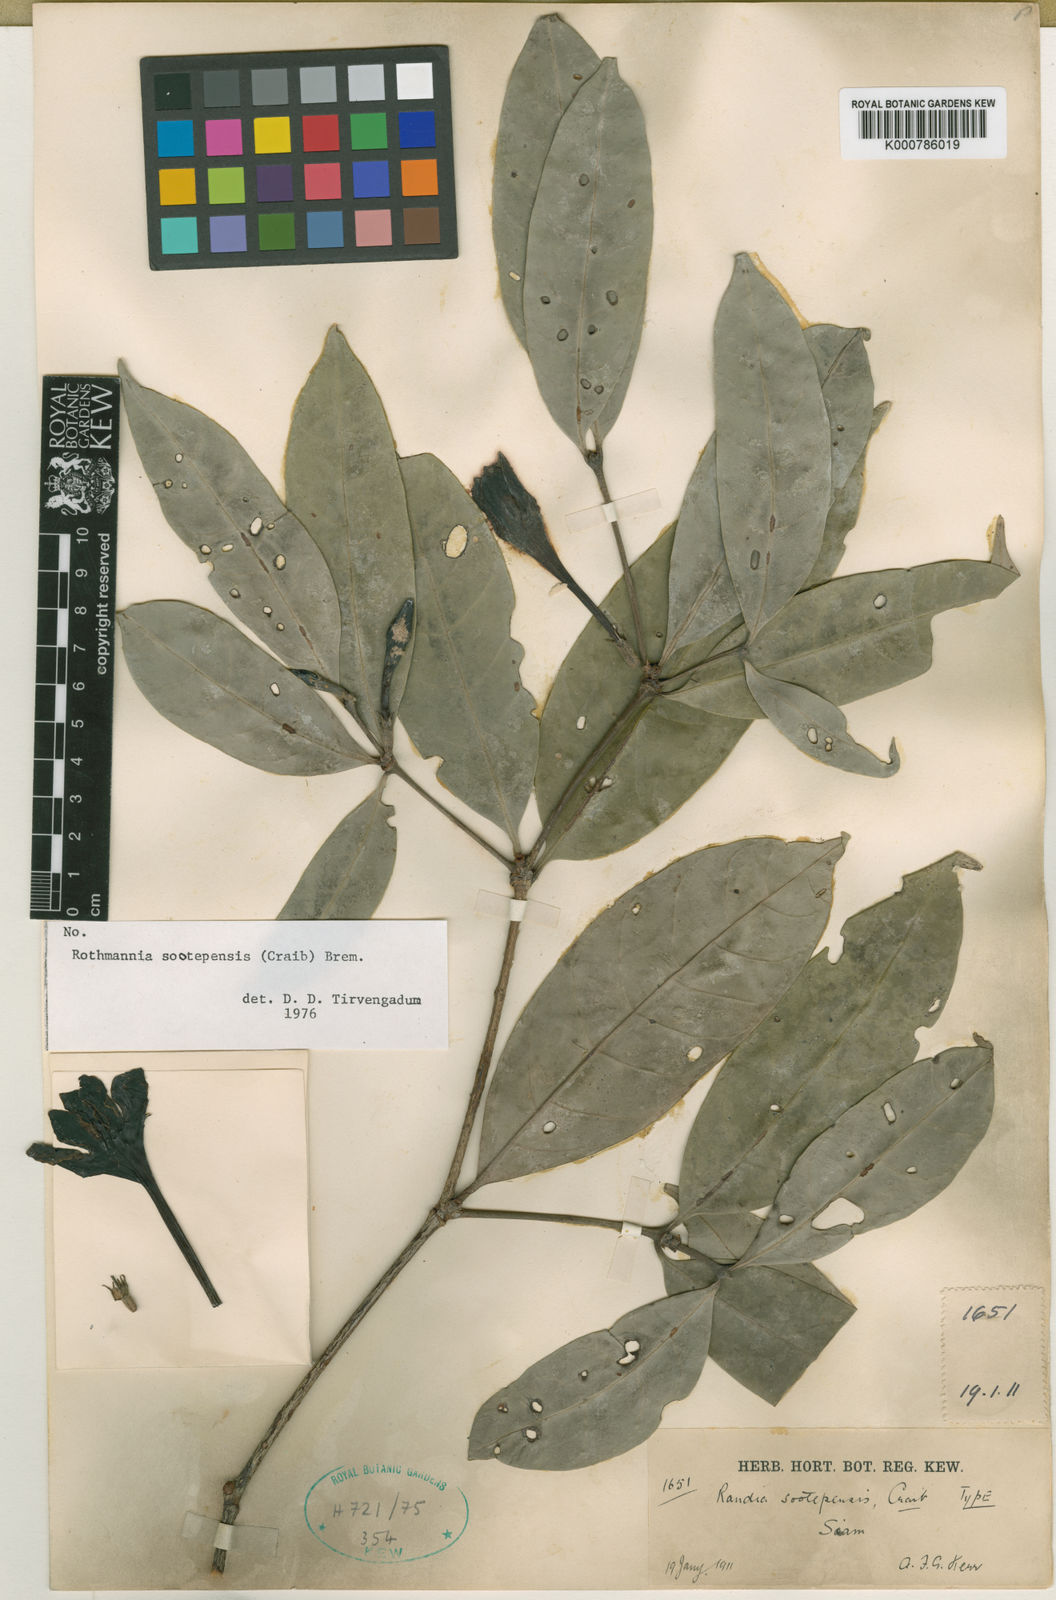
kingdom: Plantae
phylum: Tracheophyta
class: Magnoliopsida
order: Gentianales
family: Rubiaceae
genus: Ridsdalea
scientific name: Ridsdalea sootepensis
